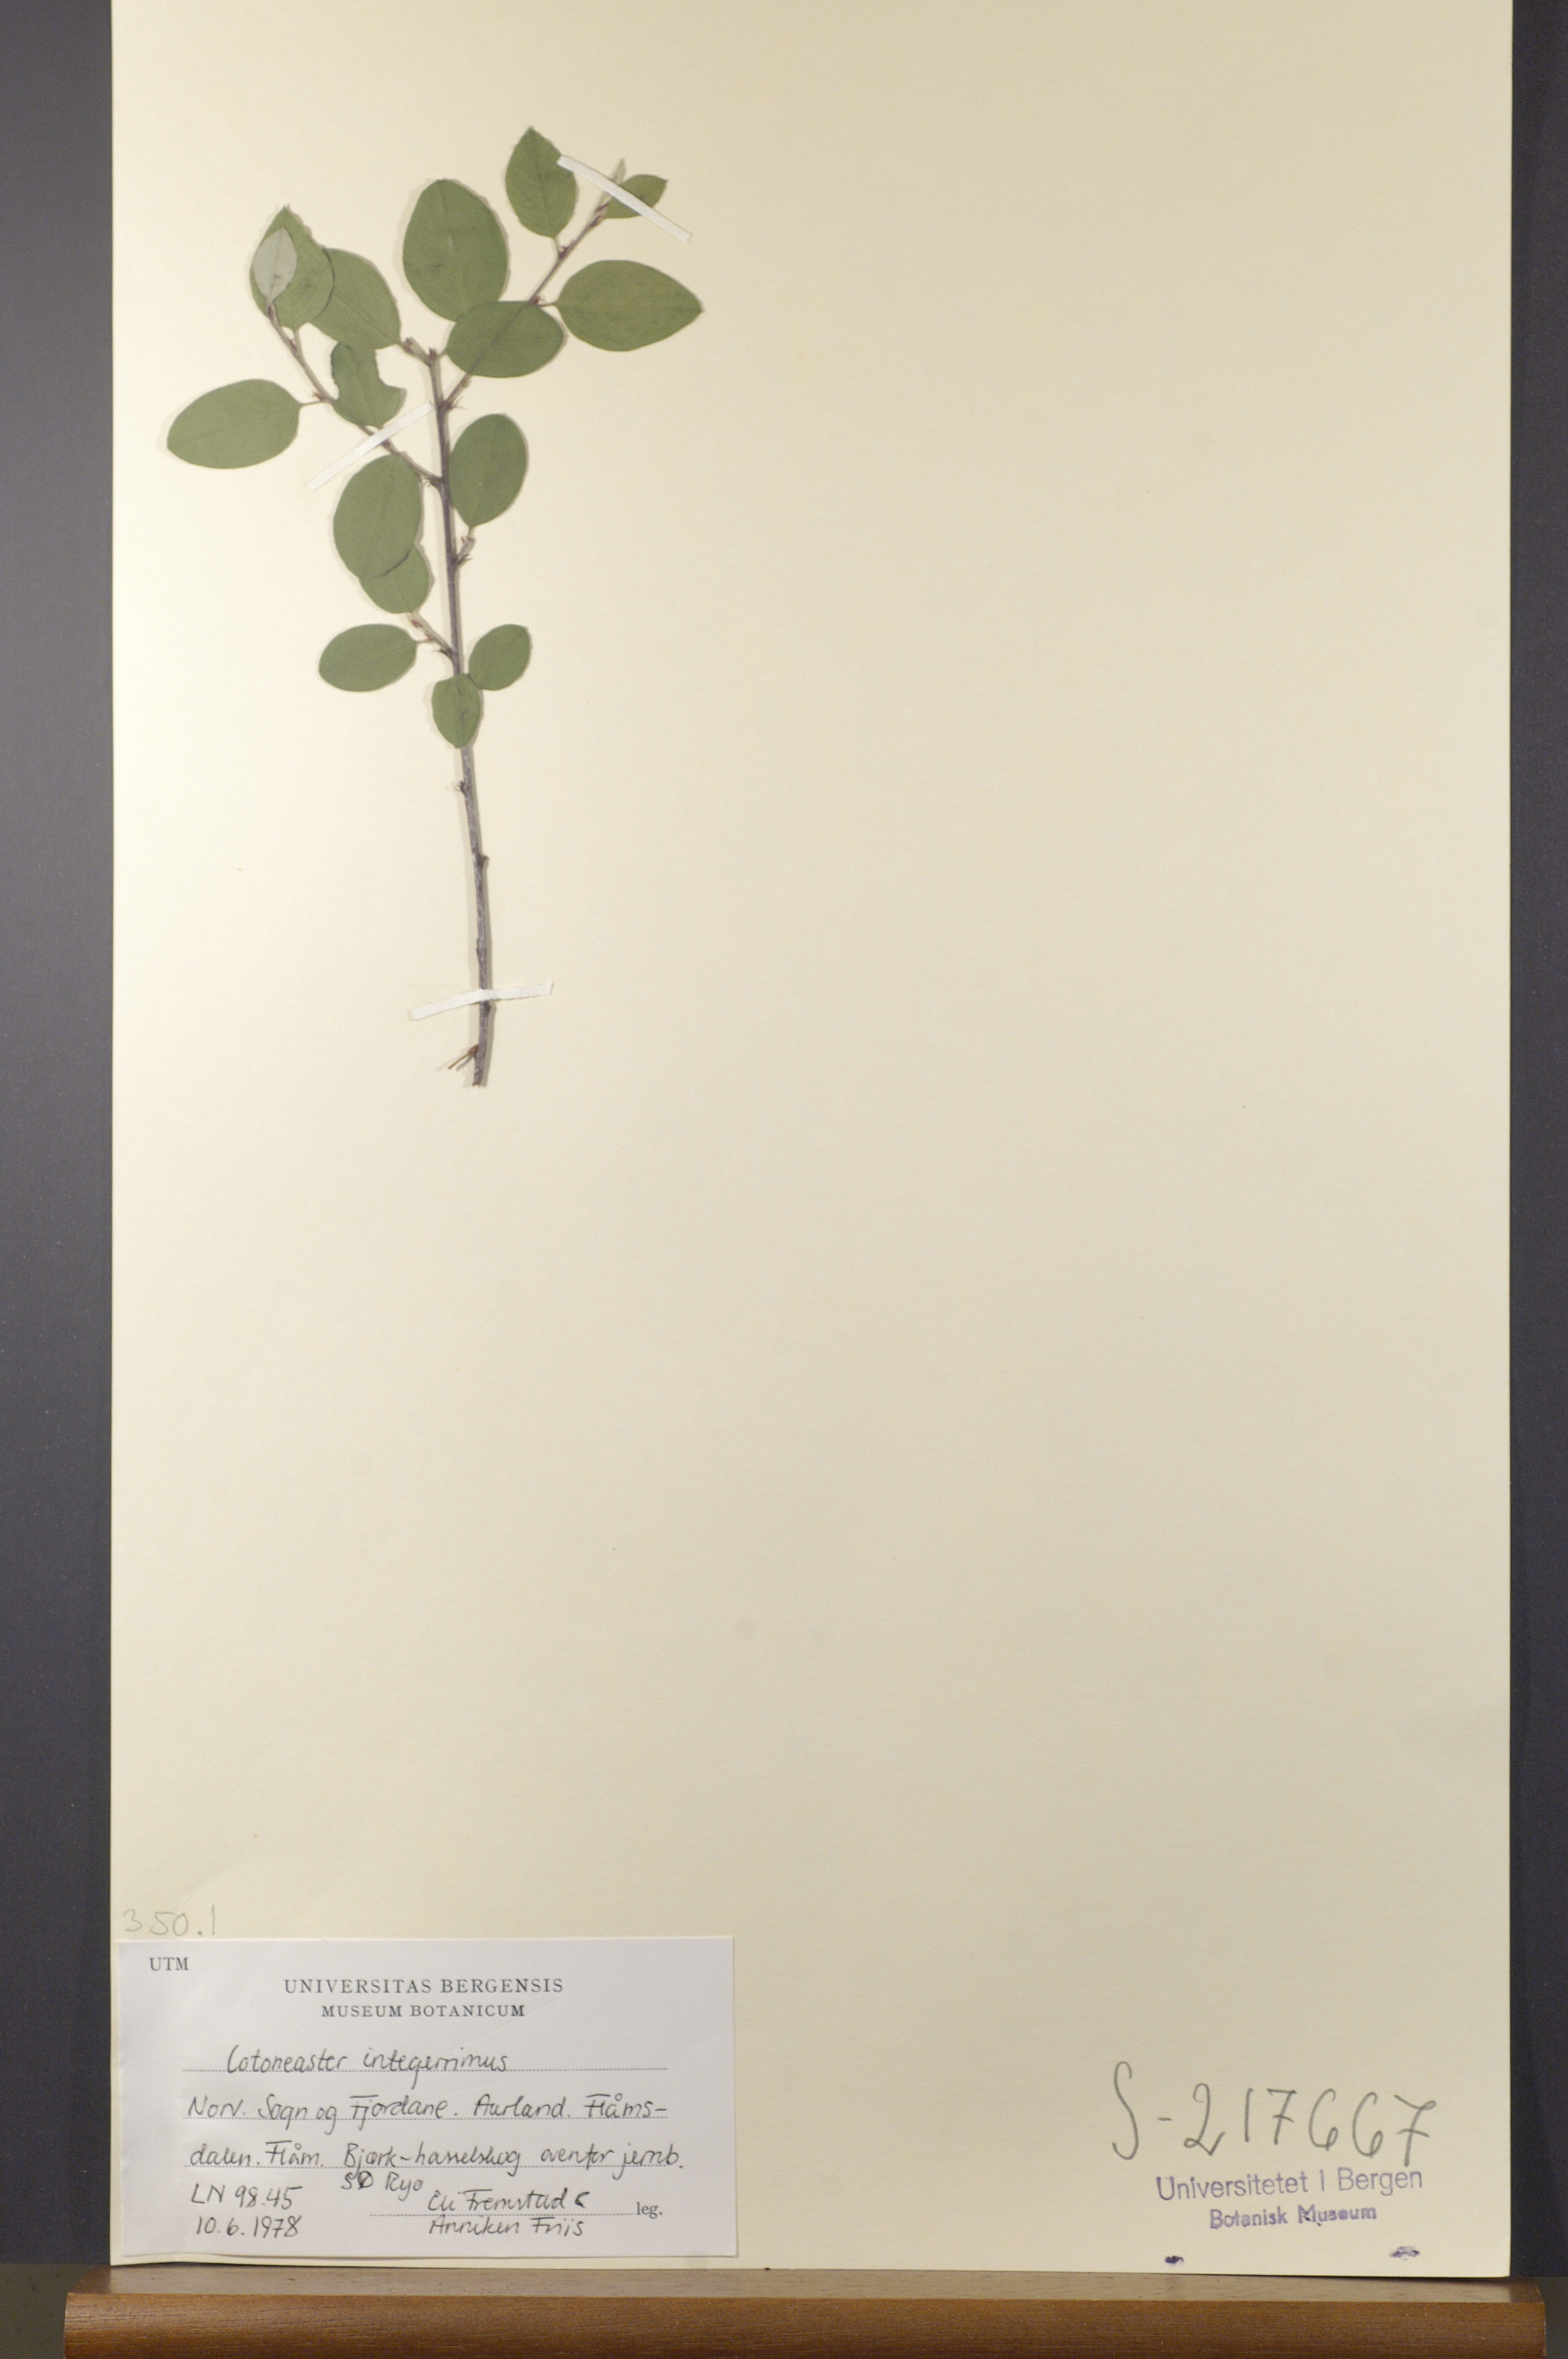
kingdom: Plantae
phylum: Tracheophyta
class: Magnoliopsida
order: Rosales
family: Rosaceae
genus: Cotoneaster
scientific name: Cotoneaster integerrimus
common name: Wild cotoneaster
